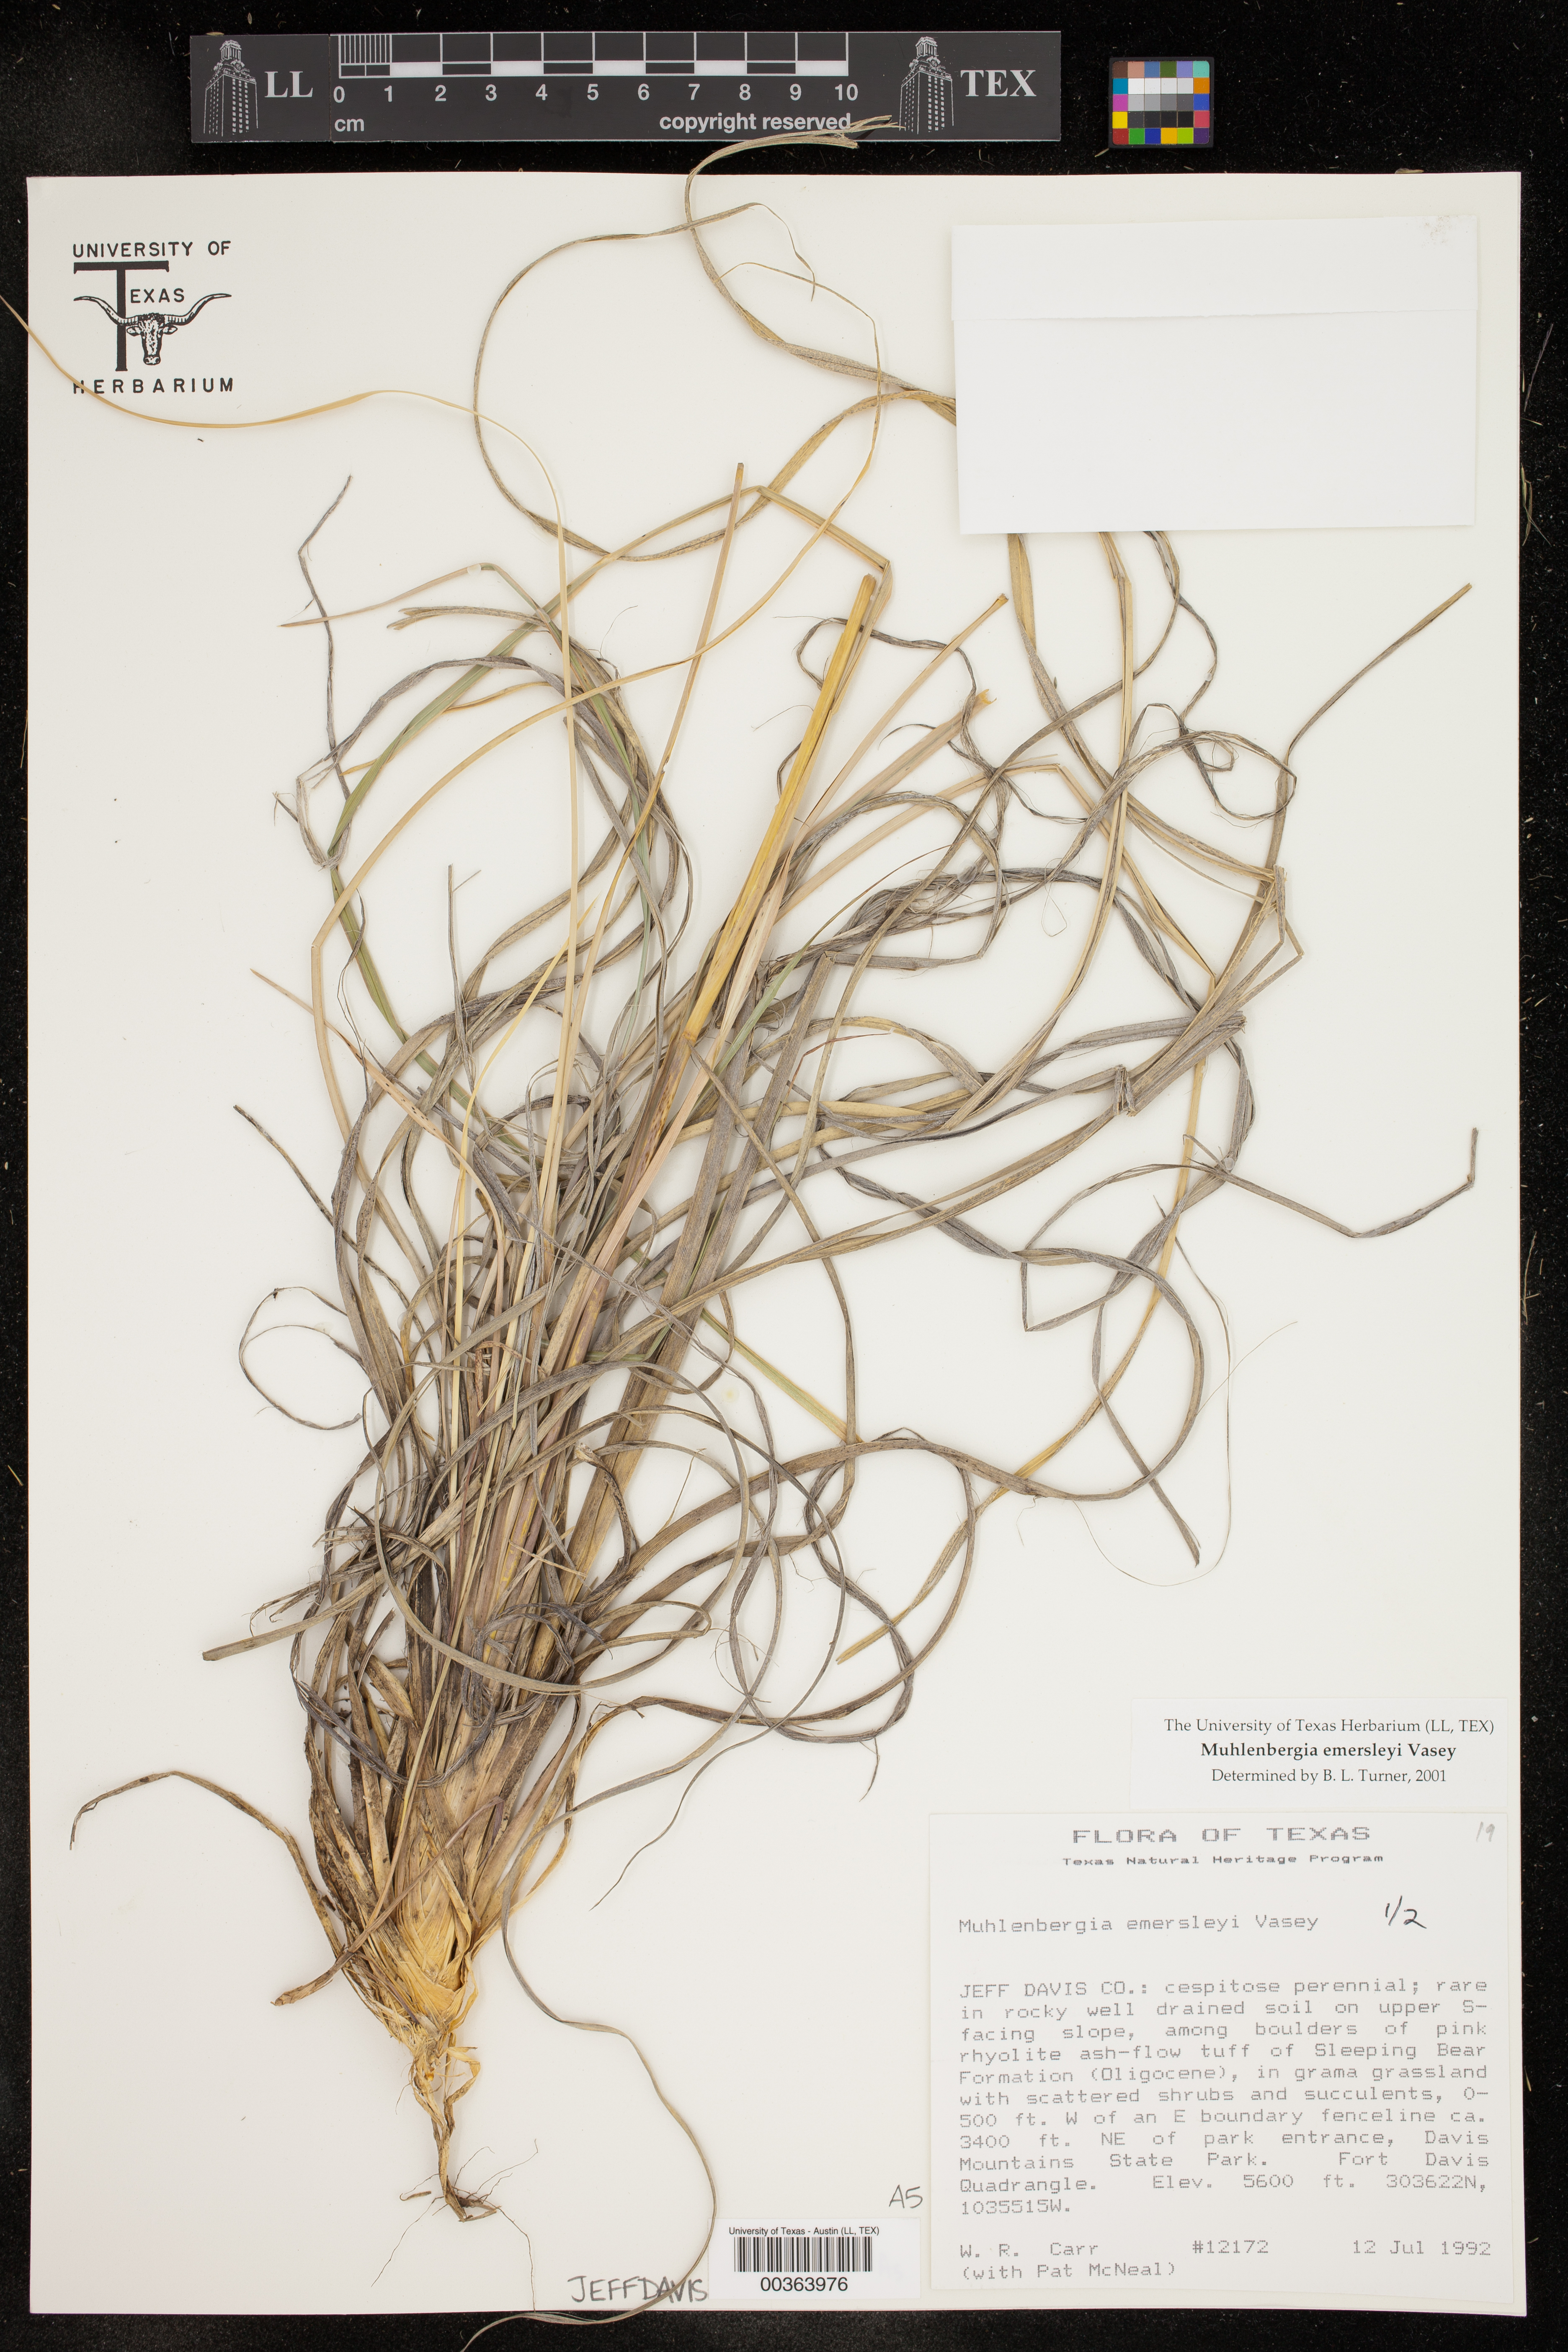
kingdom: Plantae
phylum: Tracheophyta
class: Liliopsida
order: Poales
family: Poaceae
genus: Muhlenbergia
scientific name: Muhlenbergia emersleyi
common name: Bull grass
